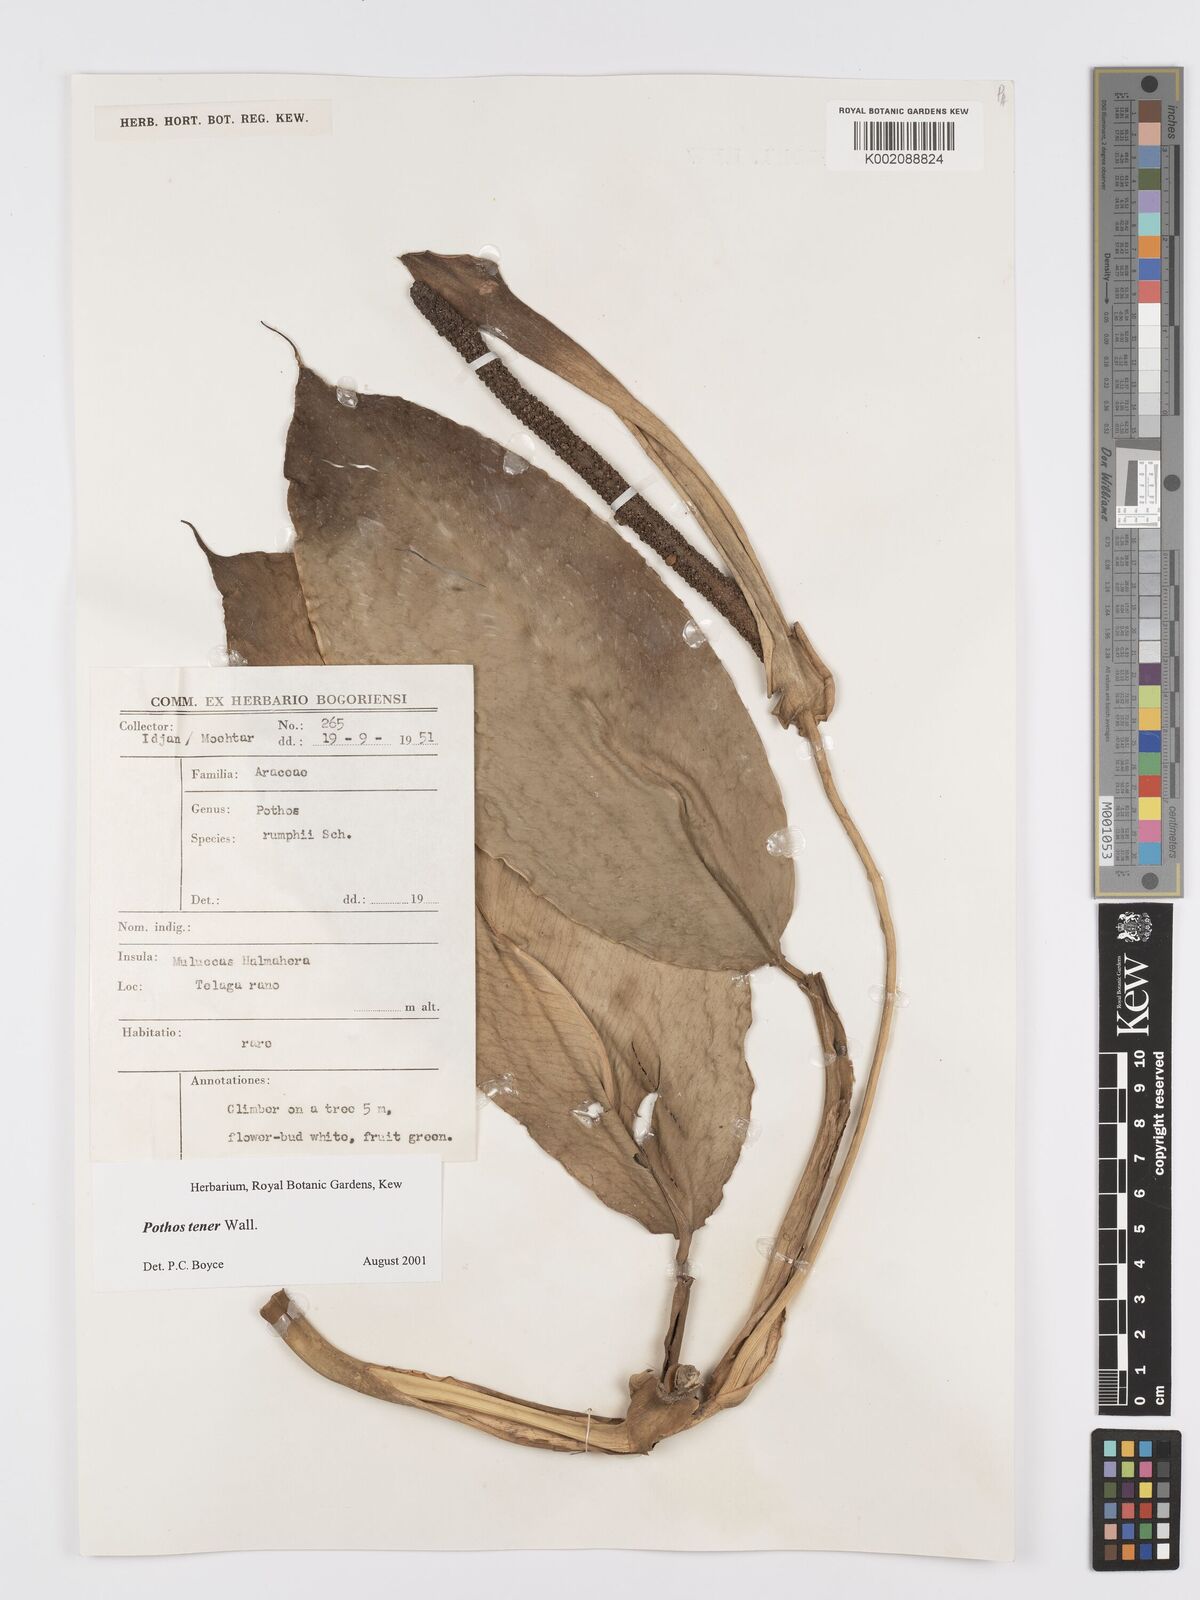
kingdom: Plantae
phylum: Tracheophyta
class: Liliopsida
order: Alismatales
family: Araceae
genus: Pothos
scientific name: Pothos tener
